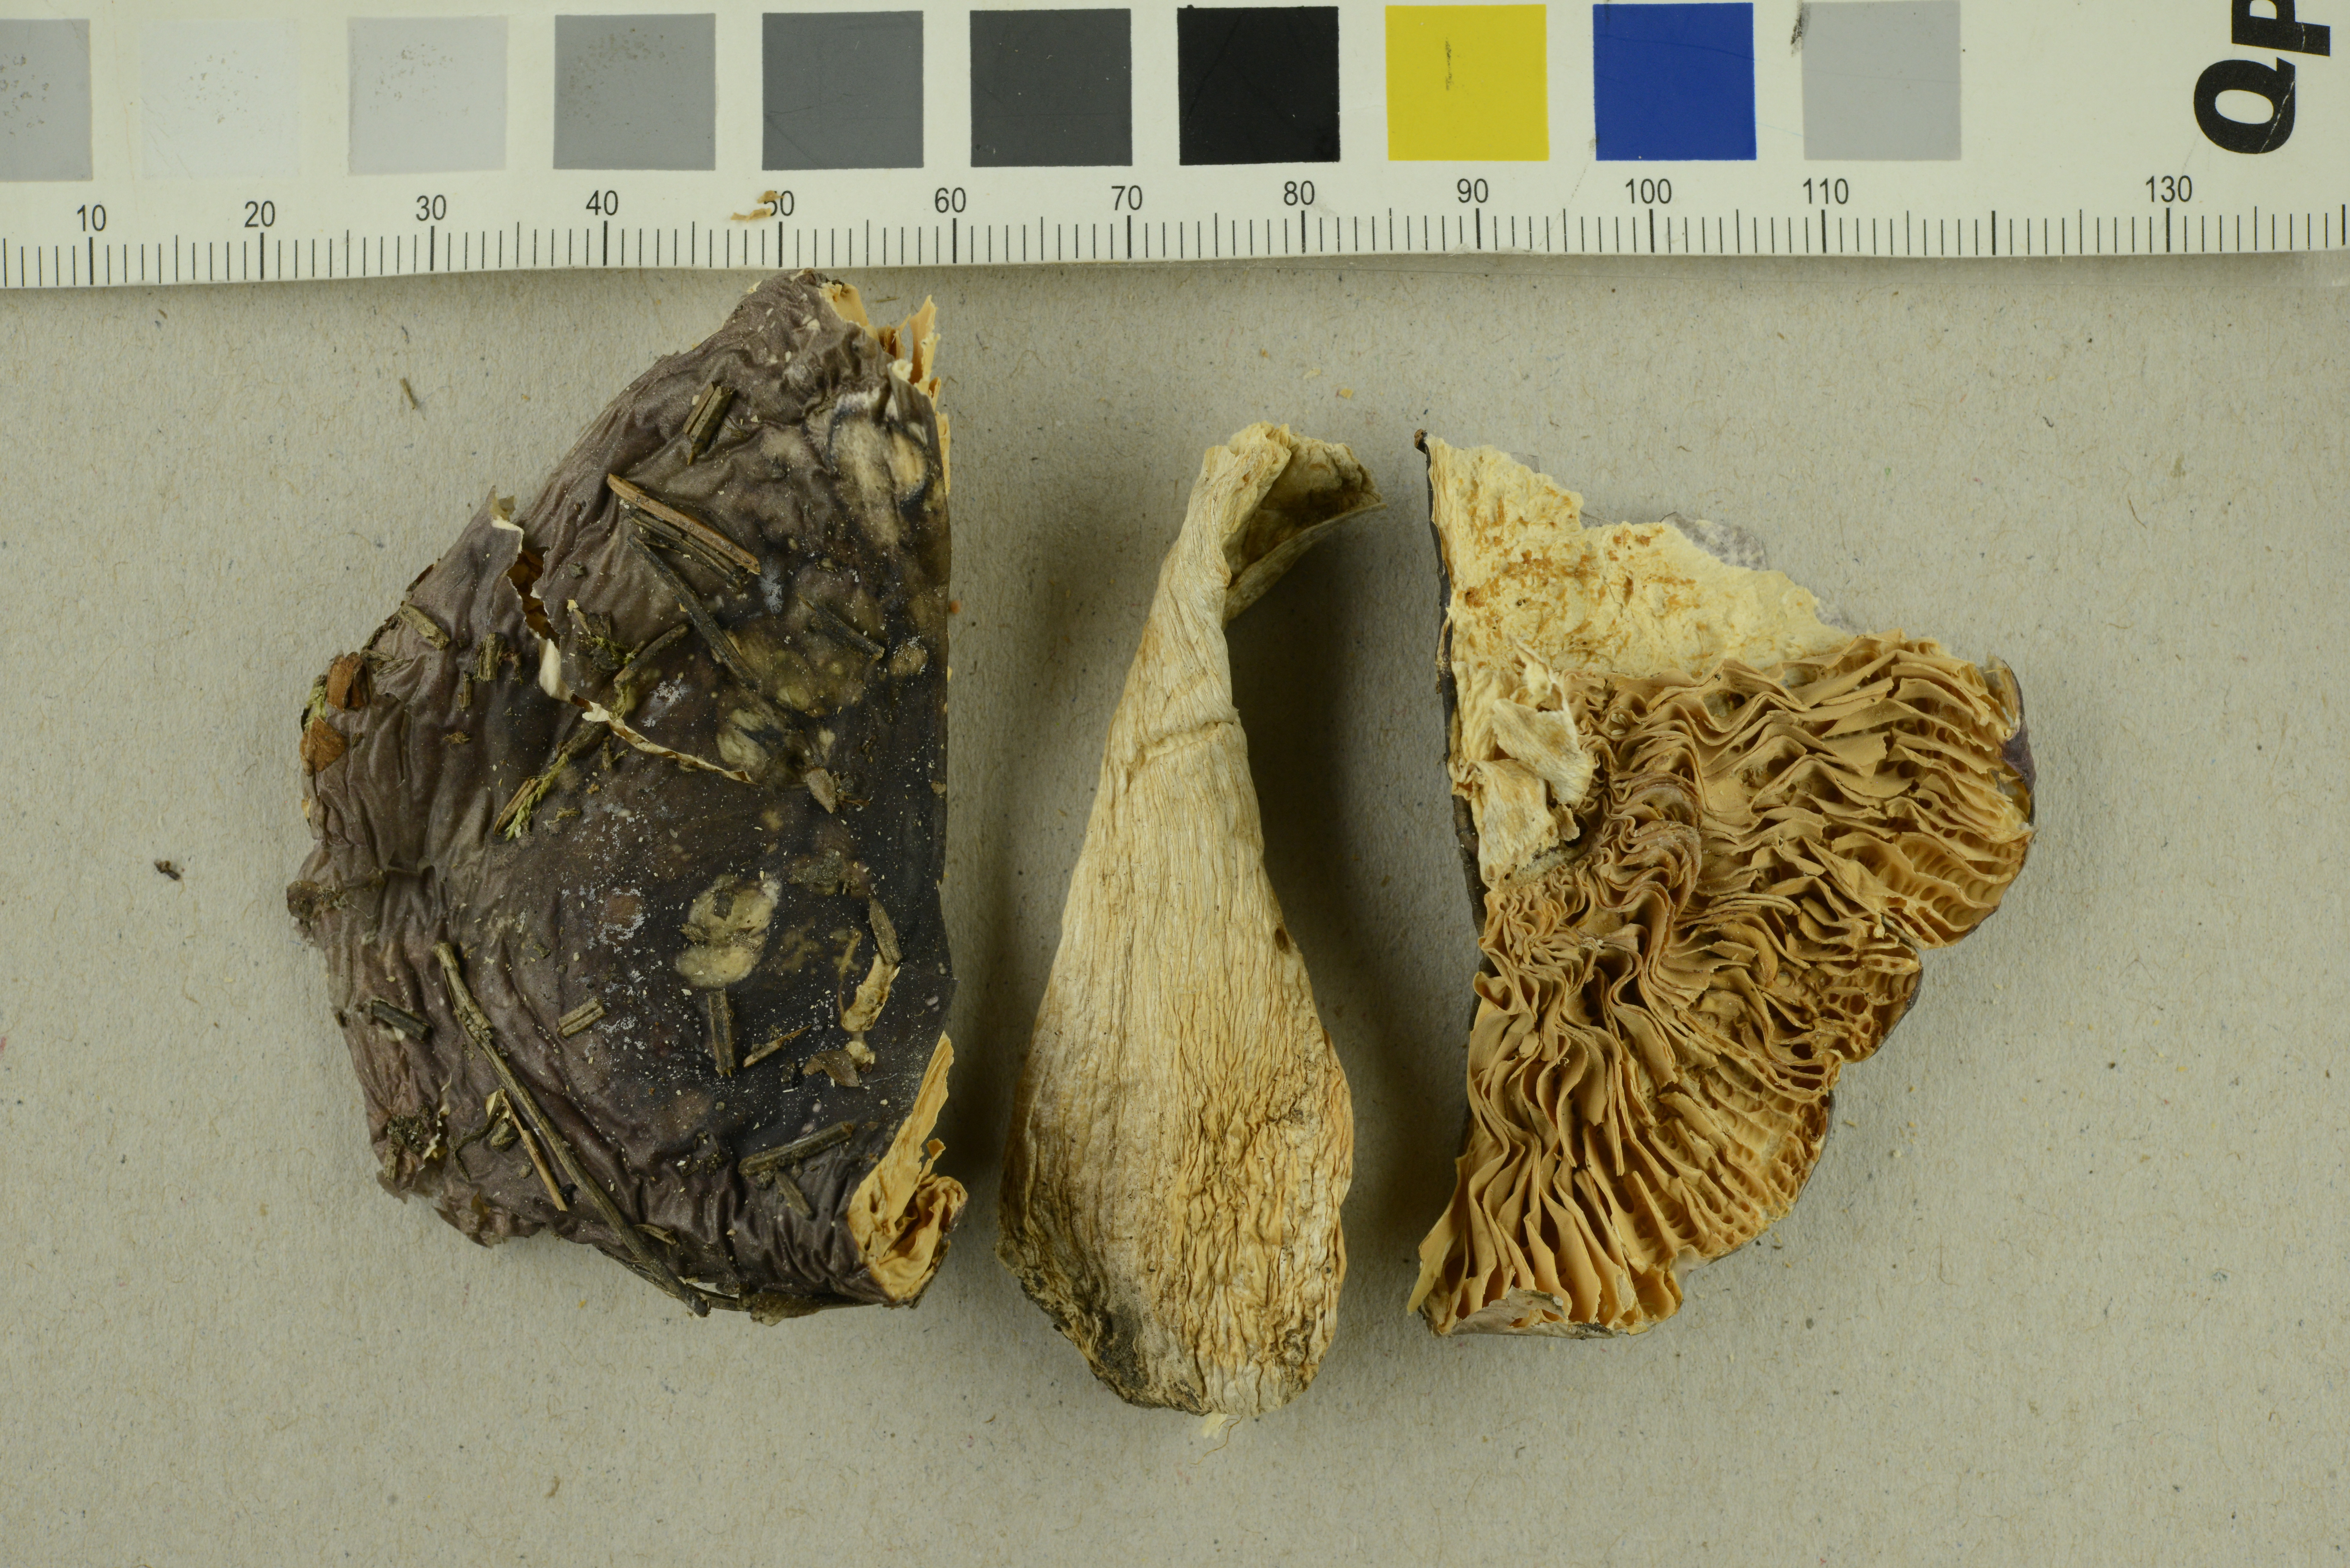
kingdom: Fungi
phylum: Basidiomycota
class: Agaricomycetes
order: Russulales
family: Russulaceae
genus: Russula
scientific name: Russula amethystina
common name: Amethyst brittlegill
